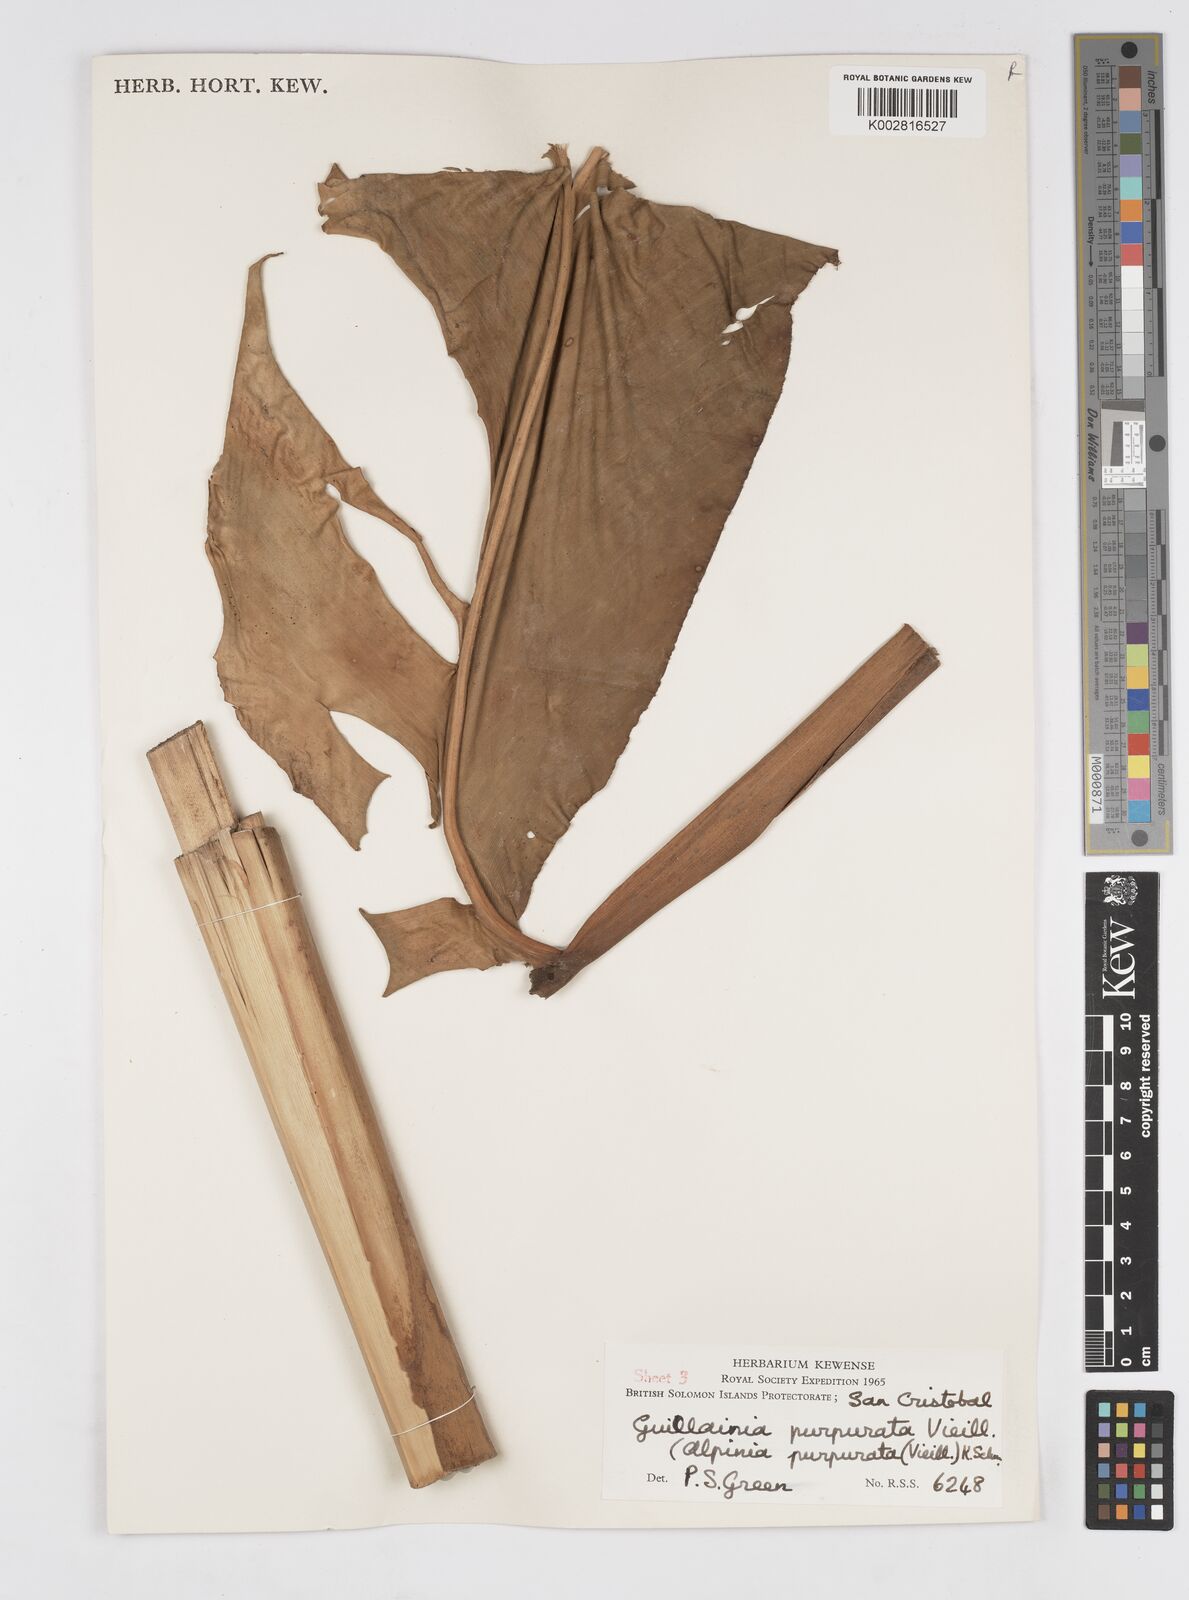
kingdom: Plantae
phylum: Tracheophyta
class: Liliopsida
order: Zingiberales
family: Zingiberaceae
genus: Alpinia
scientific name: Alpinia purpurata
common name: Red ginger
